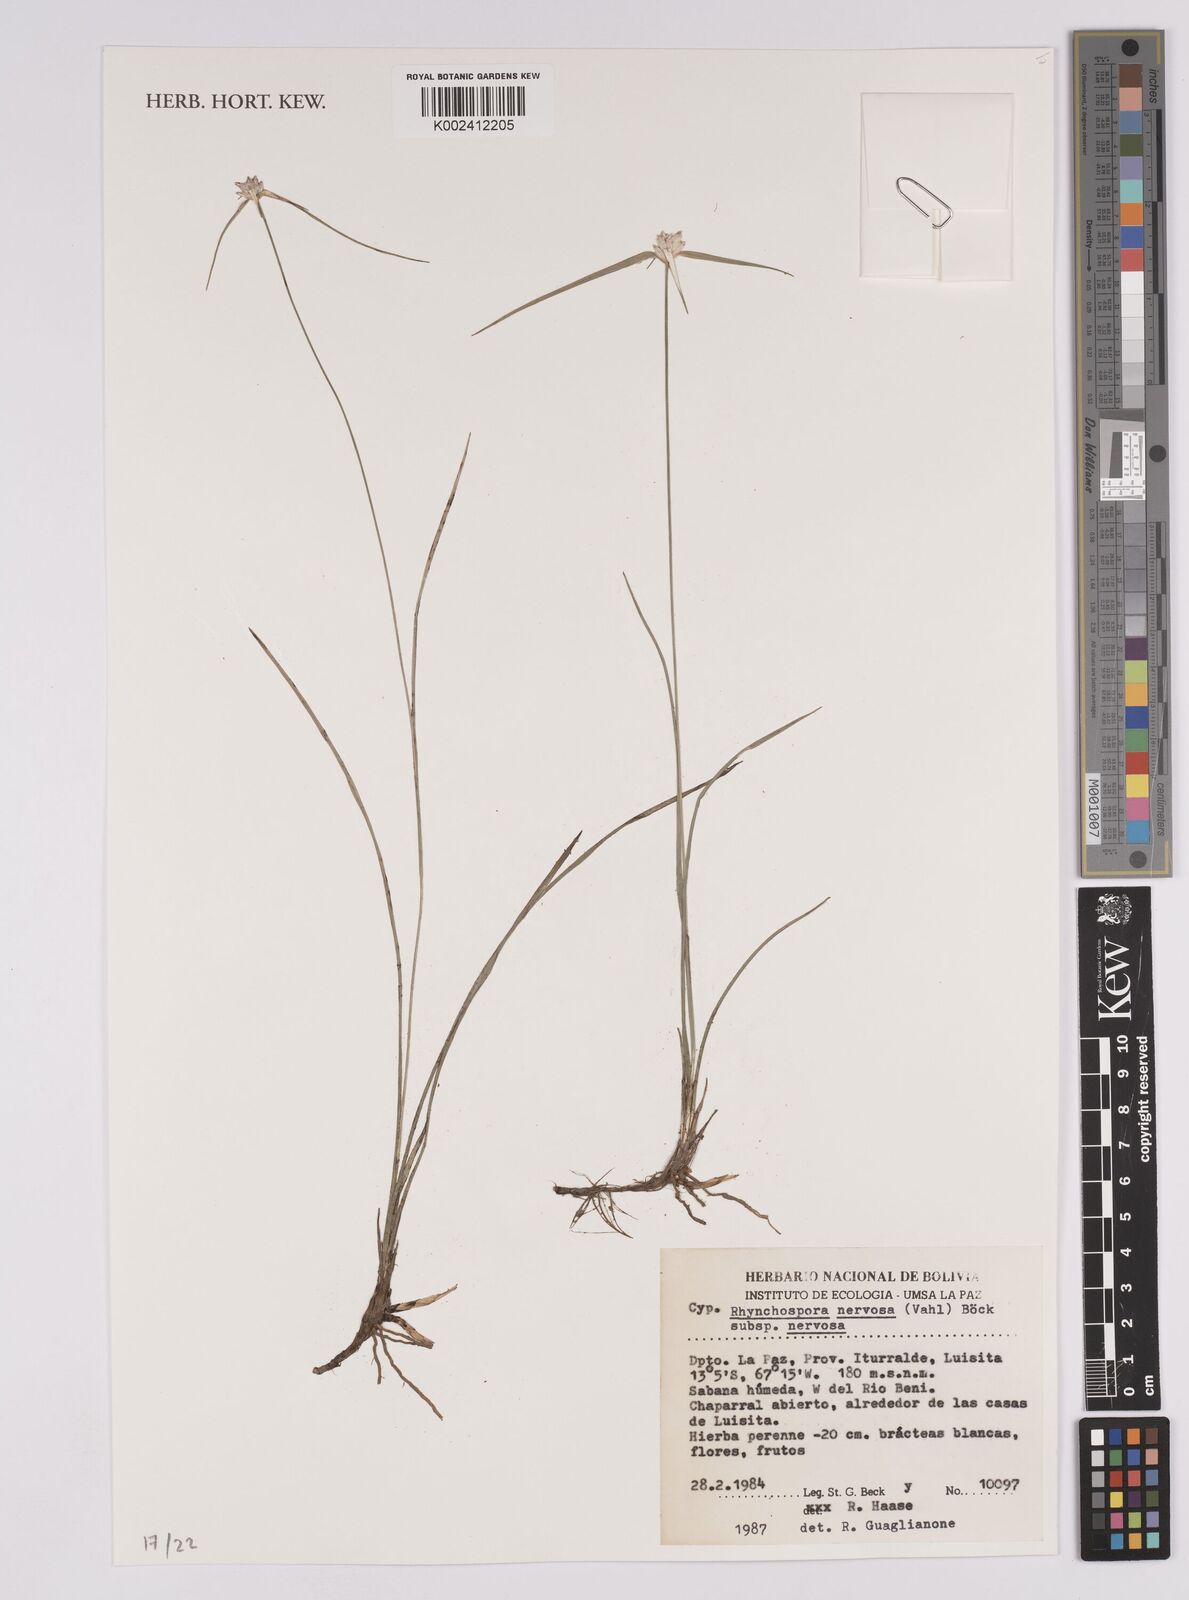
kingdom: Plantae
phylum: Tracheophyta
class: Liliopsida
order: Poales
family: Cyperaceae
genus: Rhynchospora
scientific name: Rhynchospora arenicola
